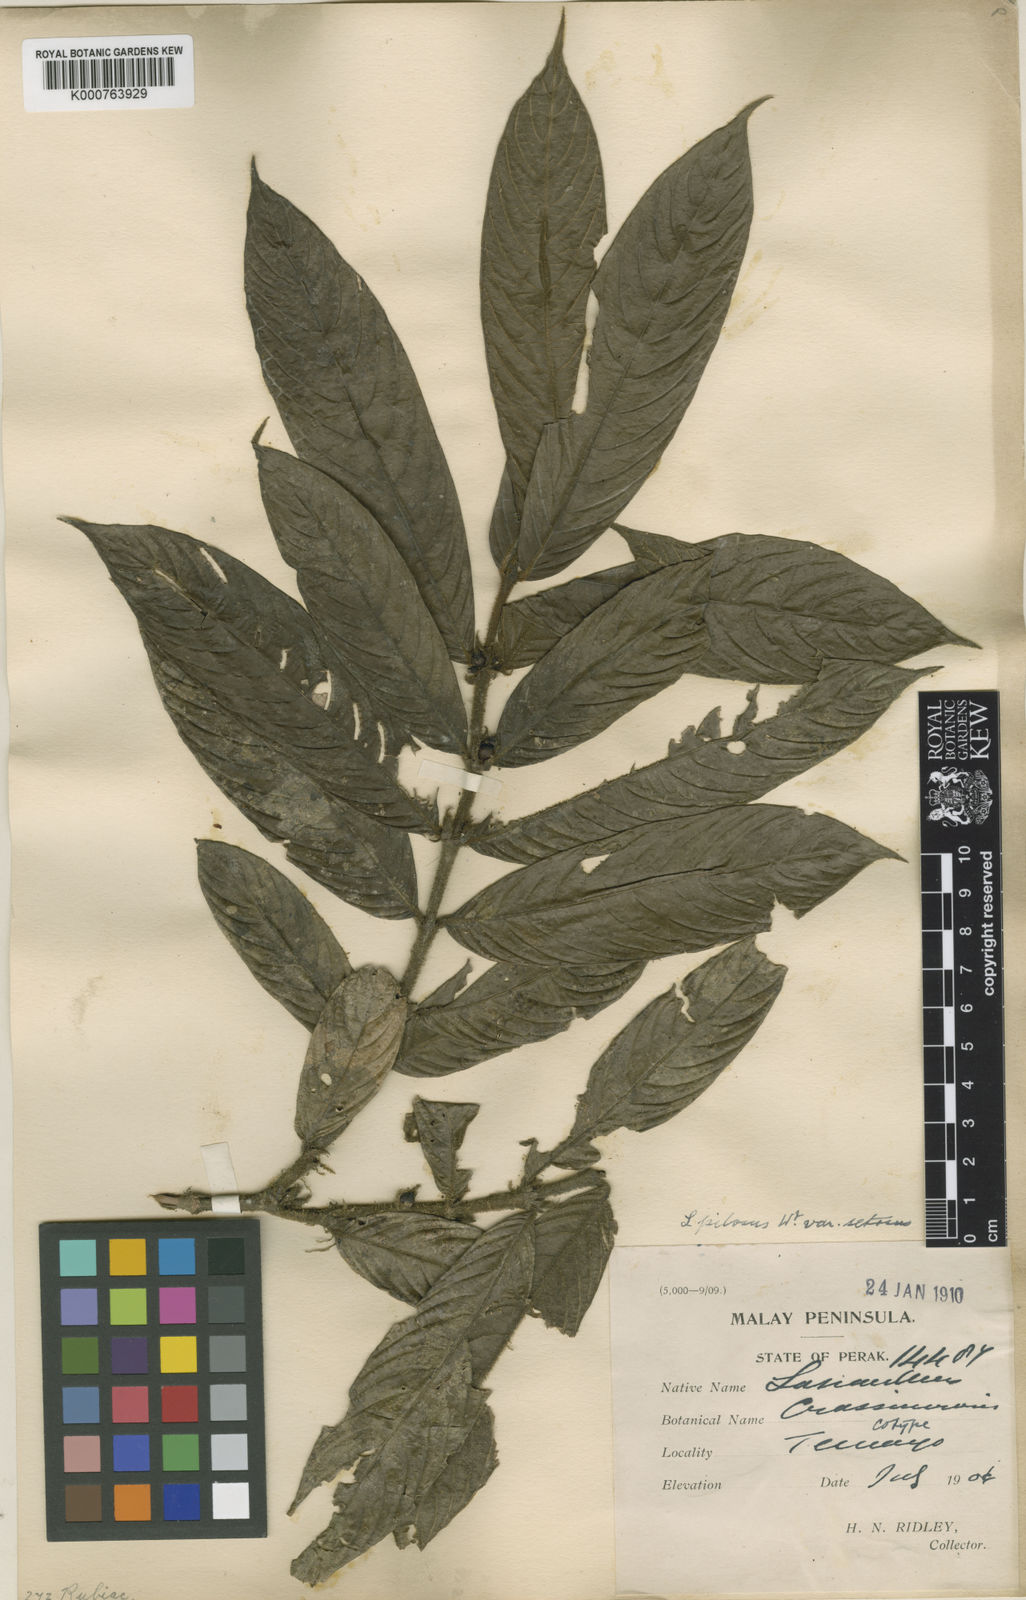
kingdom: Plantae
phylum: Tracheophyta
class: Magnoliopsida
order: Gentianales
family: Rubiaceae
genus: Lasianthus
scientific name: Lasianthus pilosus
